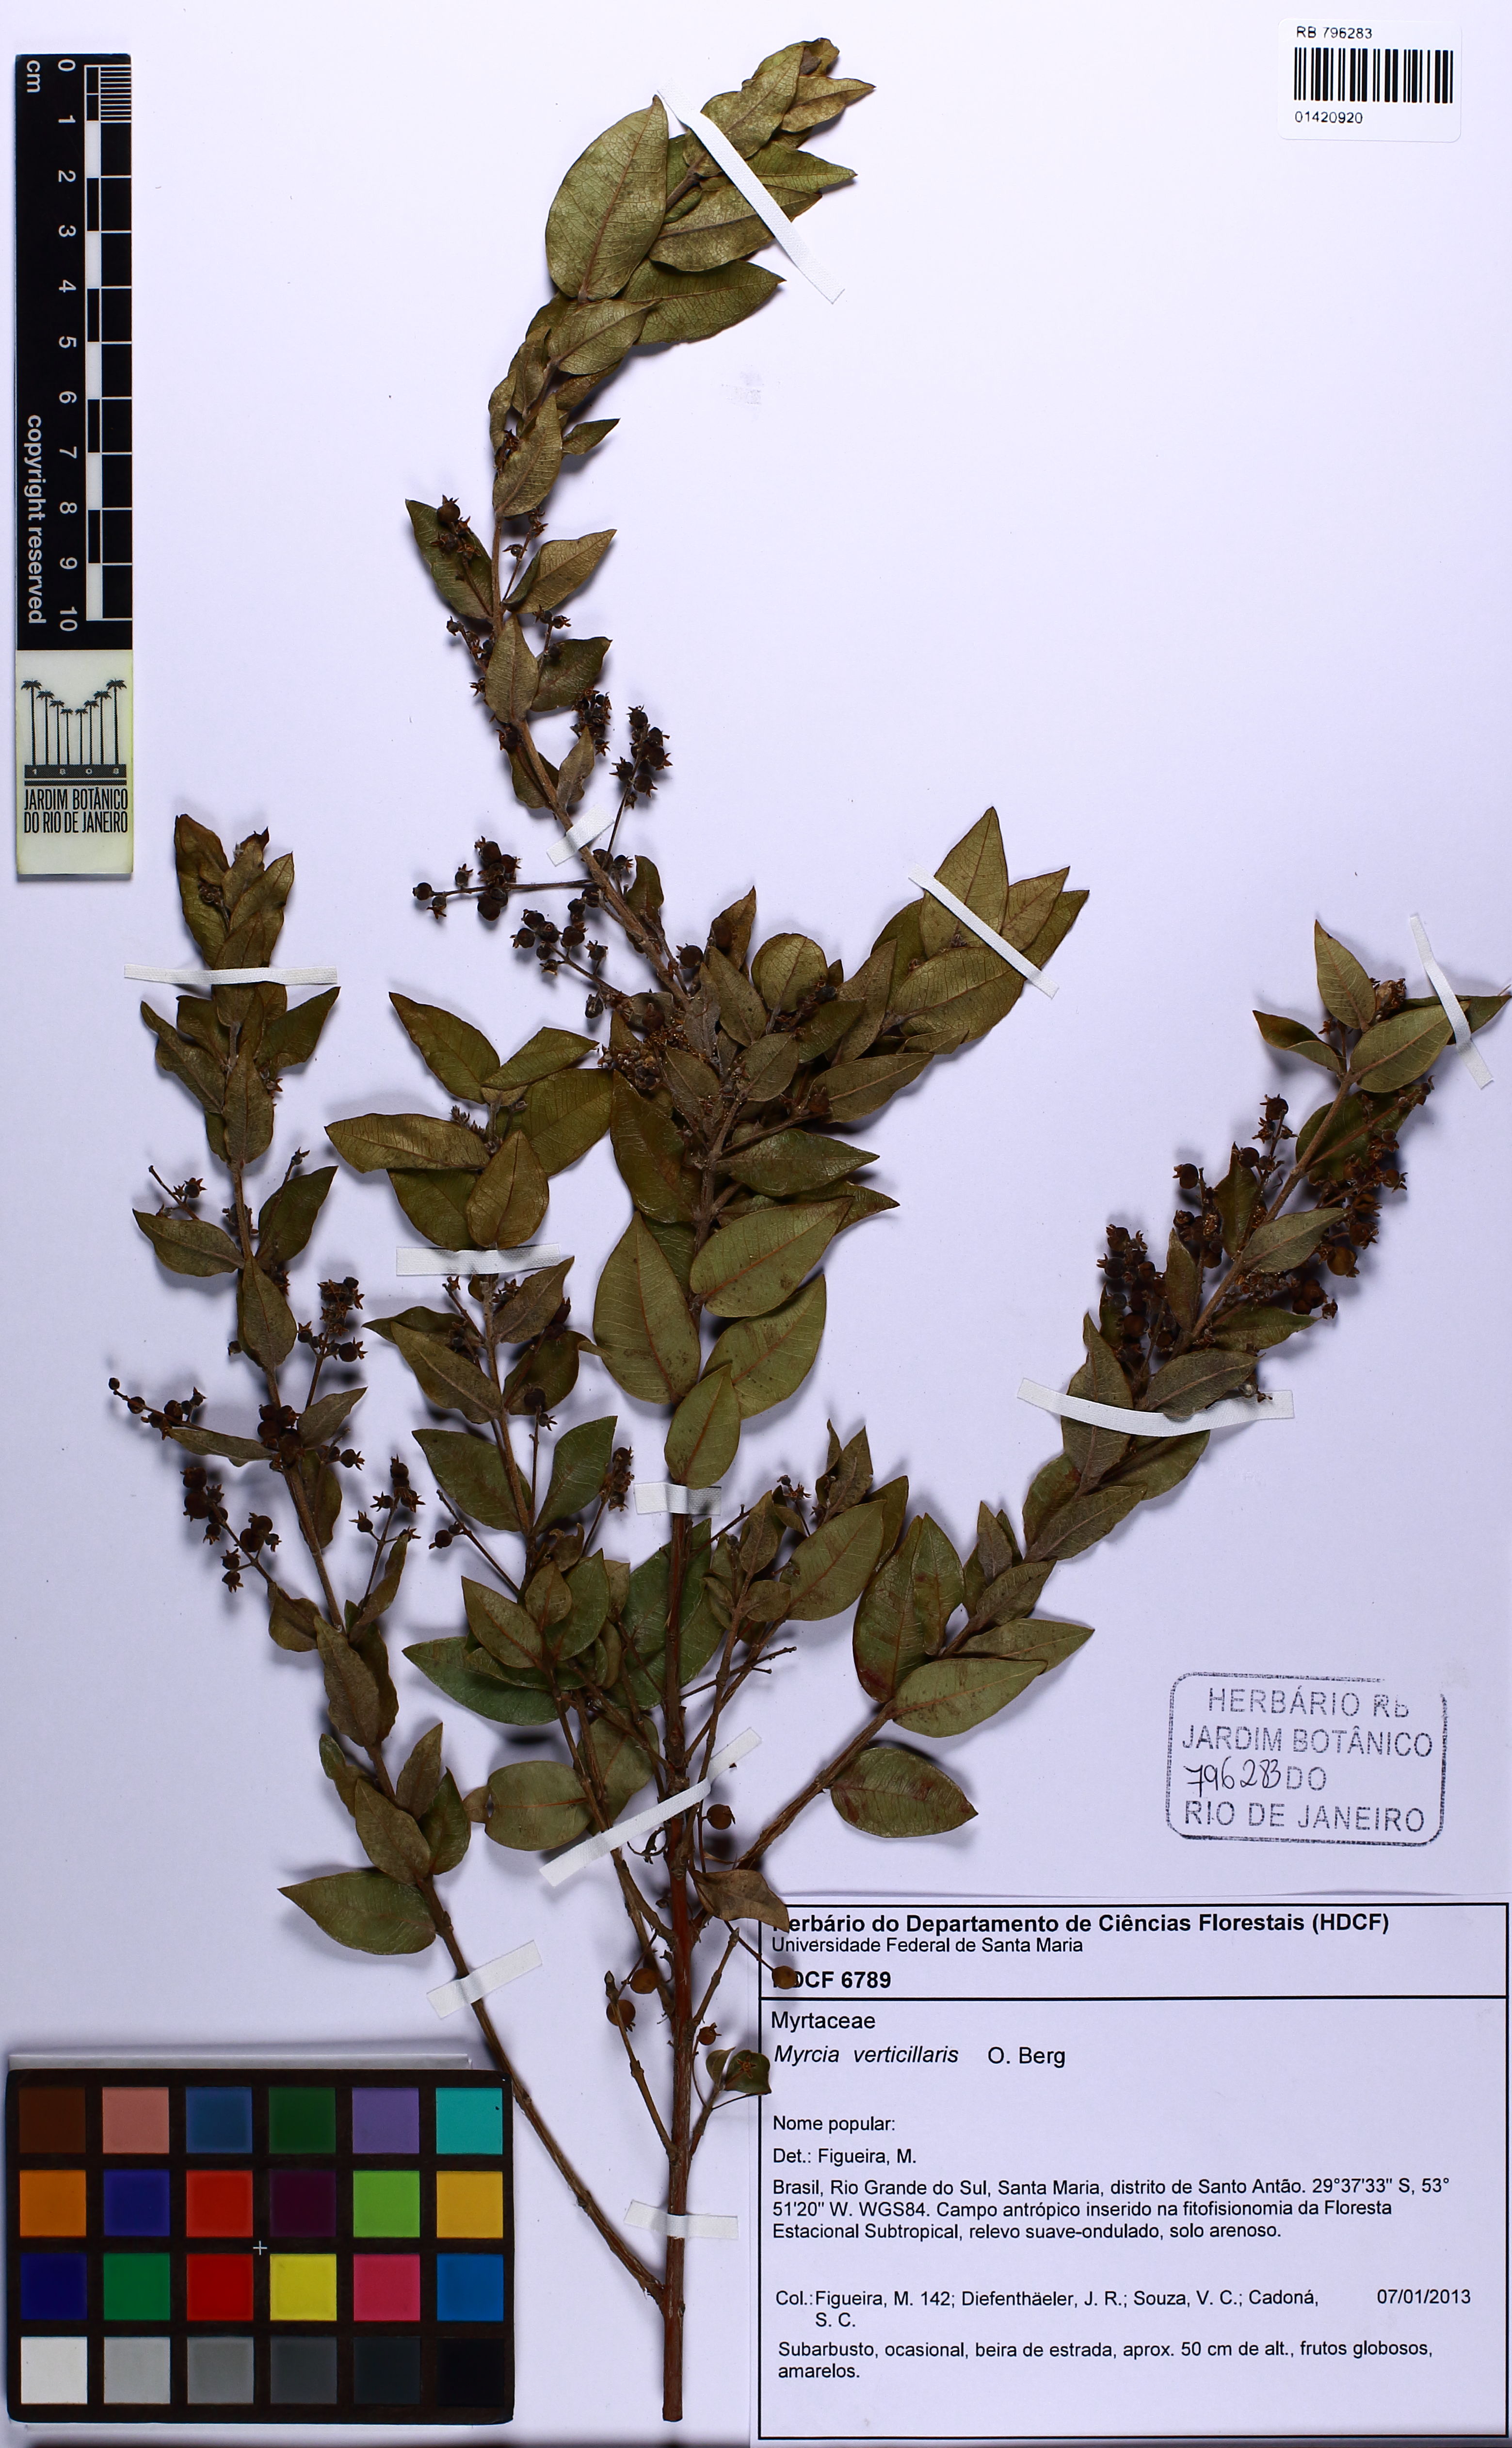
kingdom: Plantae
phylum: Tracheophyta
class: Magnoliopsida
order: Myrtales
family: Myrtaceae
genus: Myrcia
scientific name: Myrcia verticillaris
